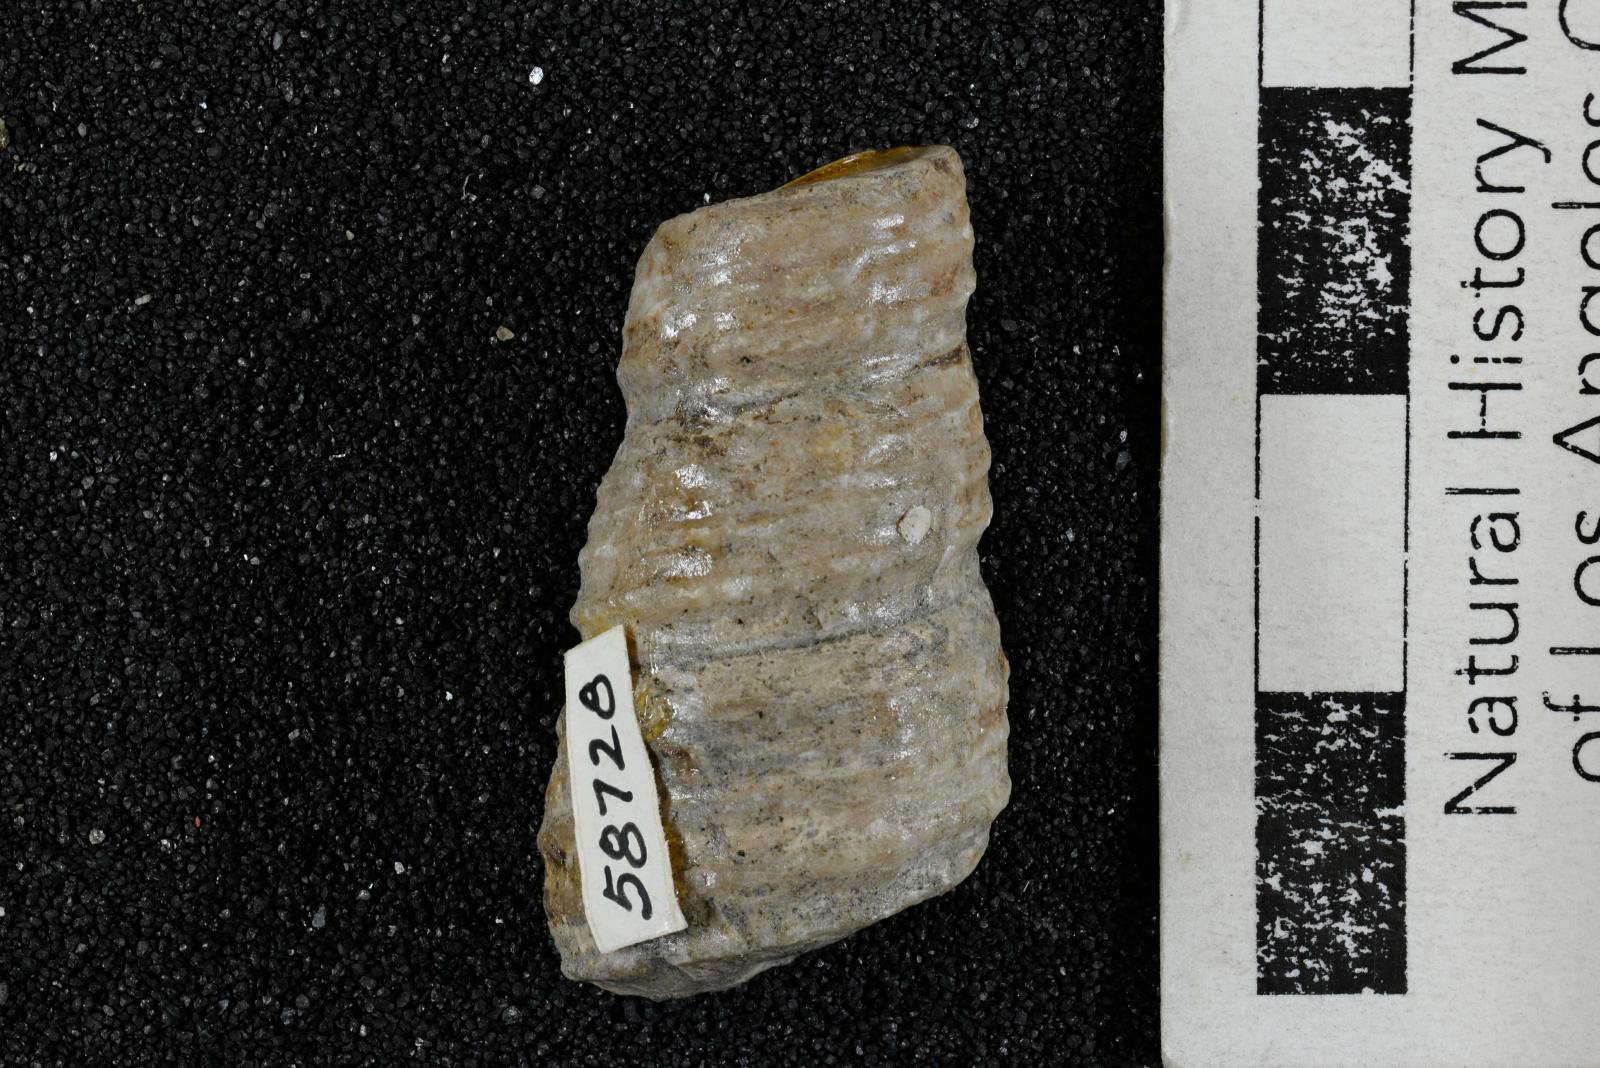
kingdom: Animalia
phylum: Mollusca
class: Gastropoda
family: Turritellidae
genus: Turritella
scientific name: Turritella chicoensis
